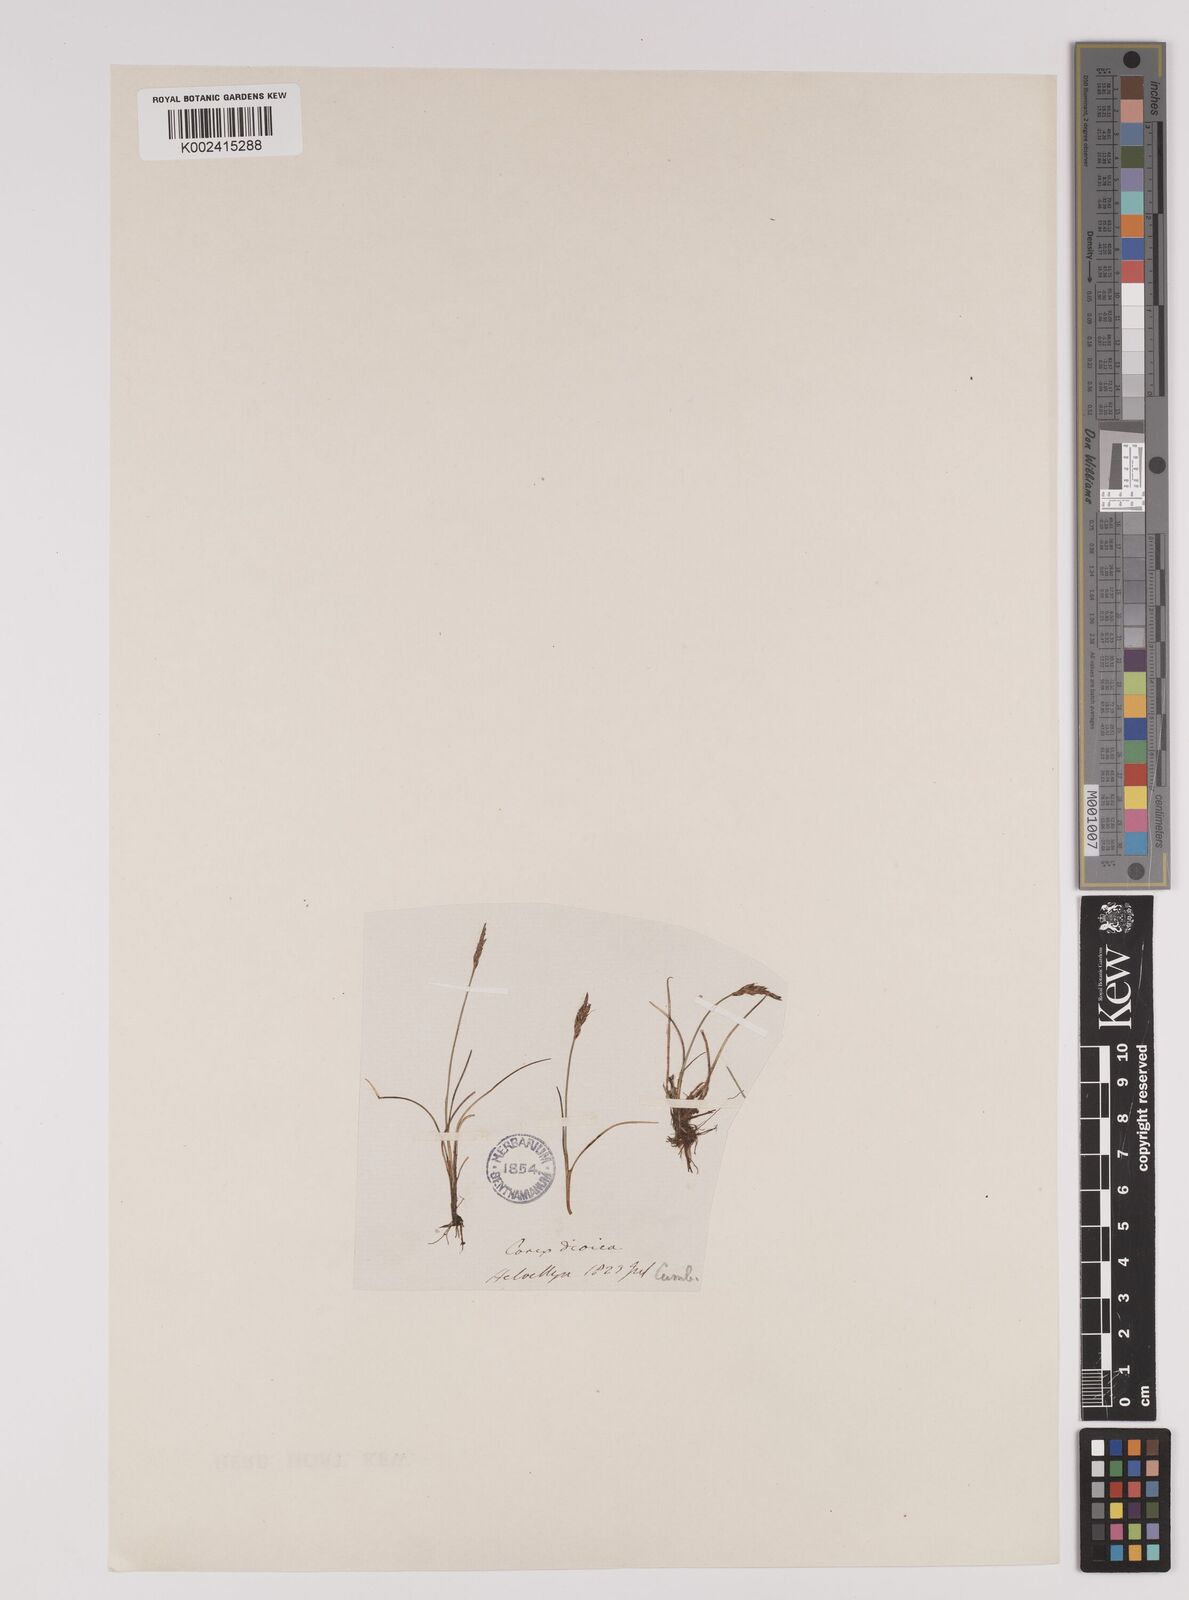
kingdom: Plantae
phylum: Tracheophyta
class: Liliopsida
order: Poales
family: Cyperaceae
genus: Carex
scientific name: Carex pulicaris
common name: Flea sedge
